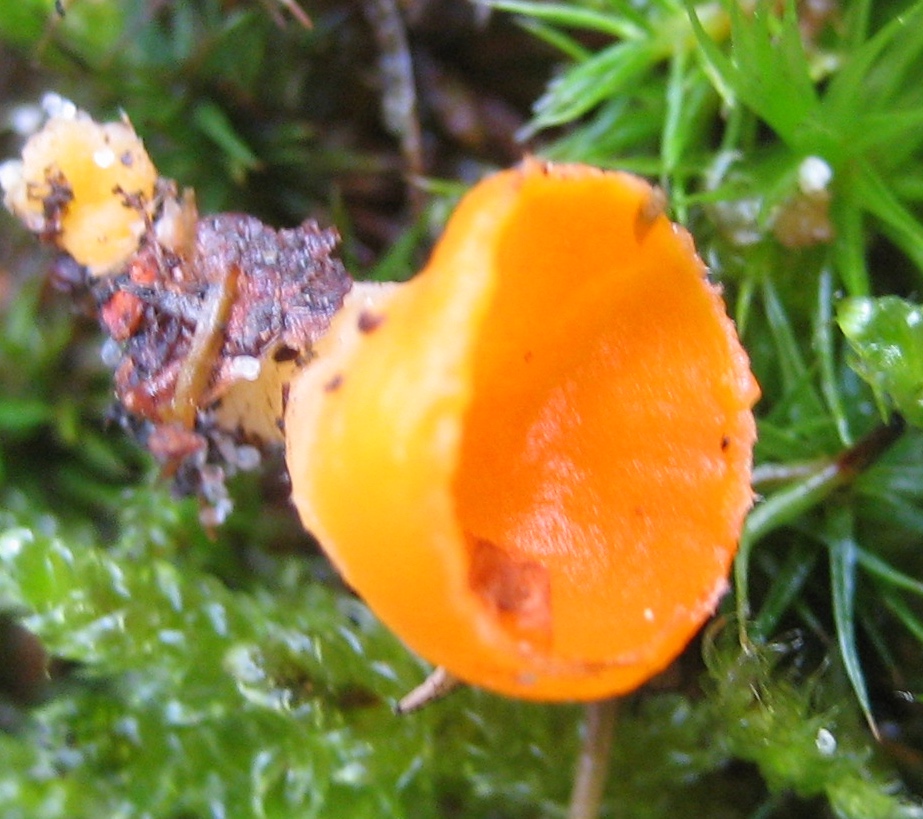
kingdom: Fungi
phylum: Ascomycota
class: Pezizomycetes
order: Pezizales
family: Pyronemataceae
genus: Neottiella
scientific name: Neottiella
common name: mosbæger
